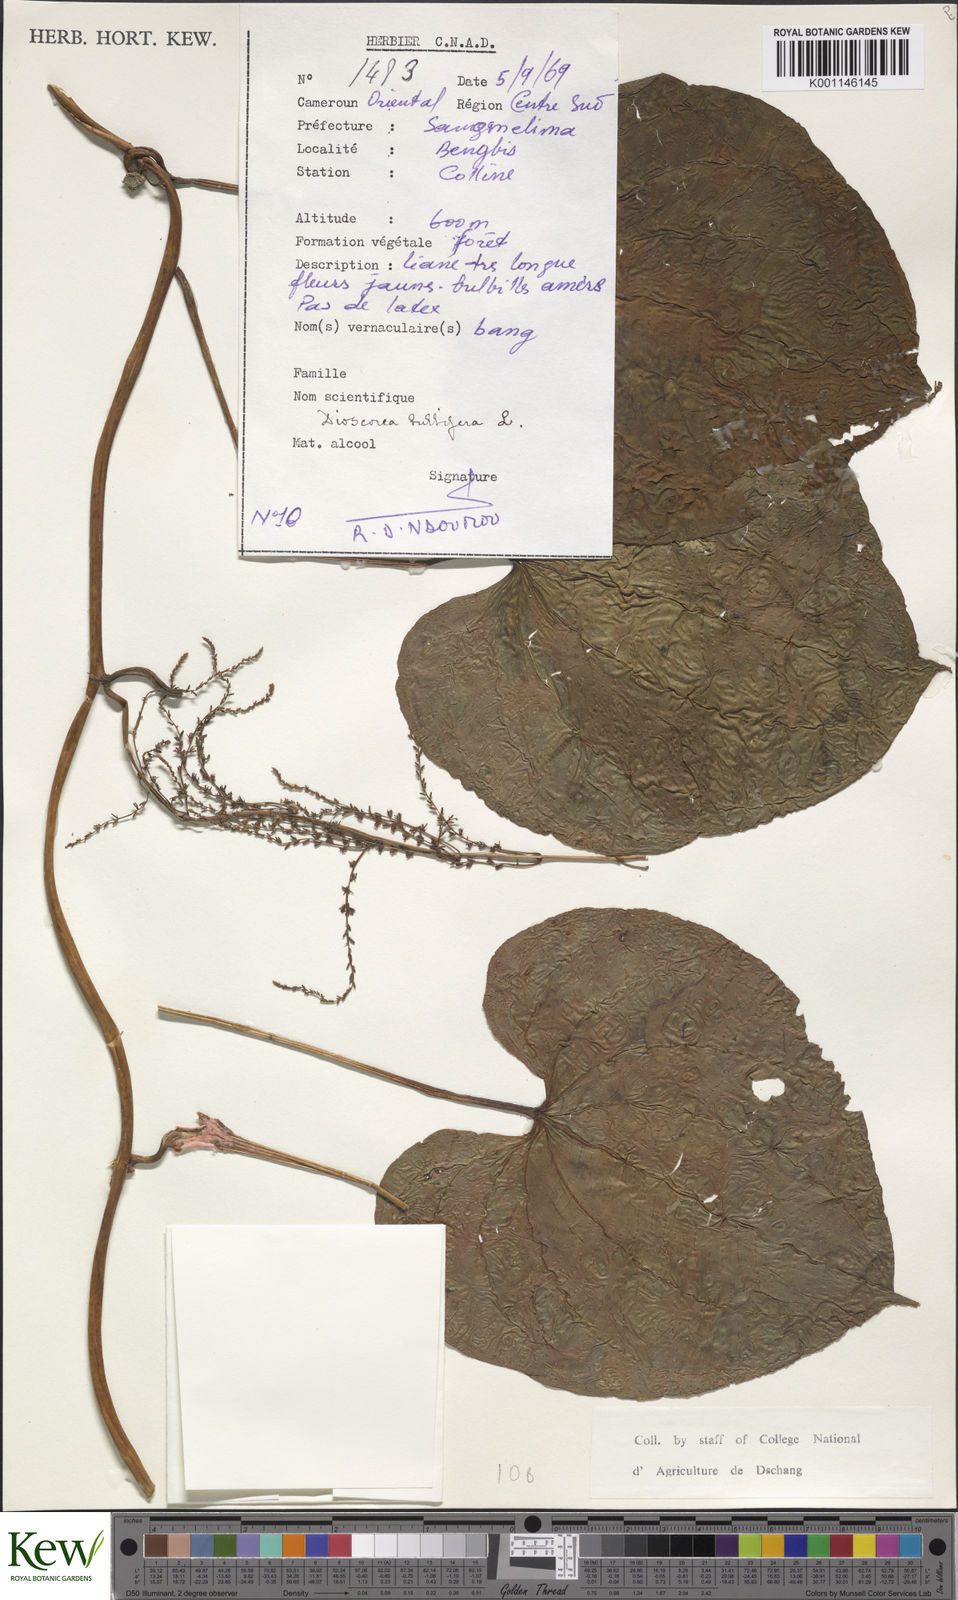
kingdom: Plantae
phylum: Tracheophyta
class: Liliopsida
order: Dioscoreales
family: Dioscoreaceae
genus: Dioscorea
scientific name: Dioscorea bulbifera
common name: Air yam
